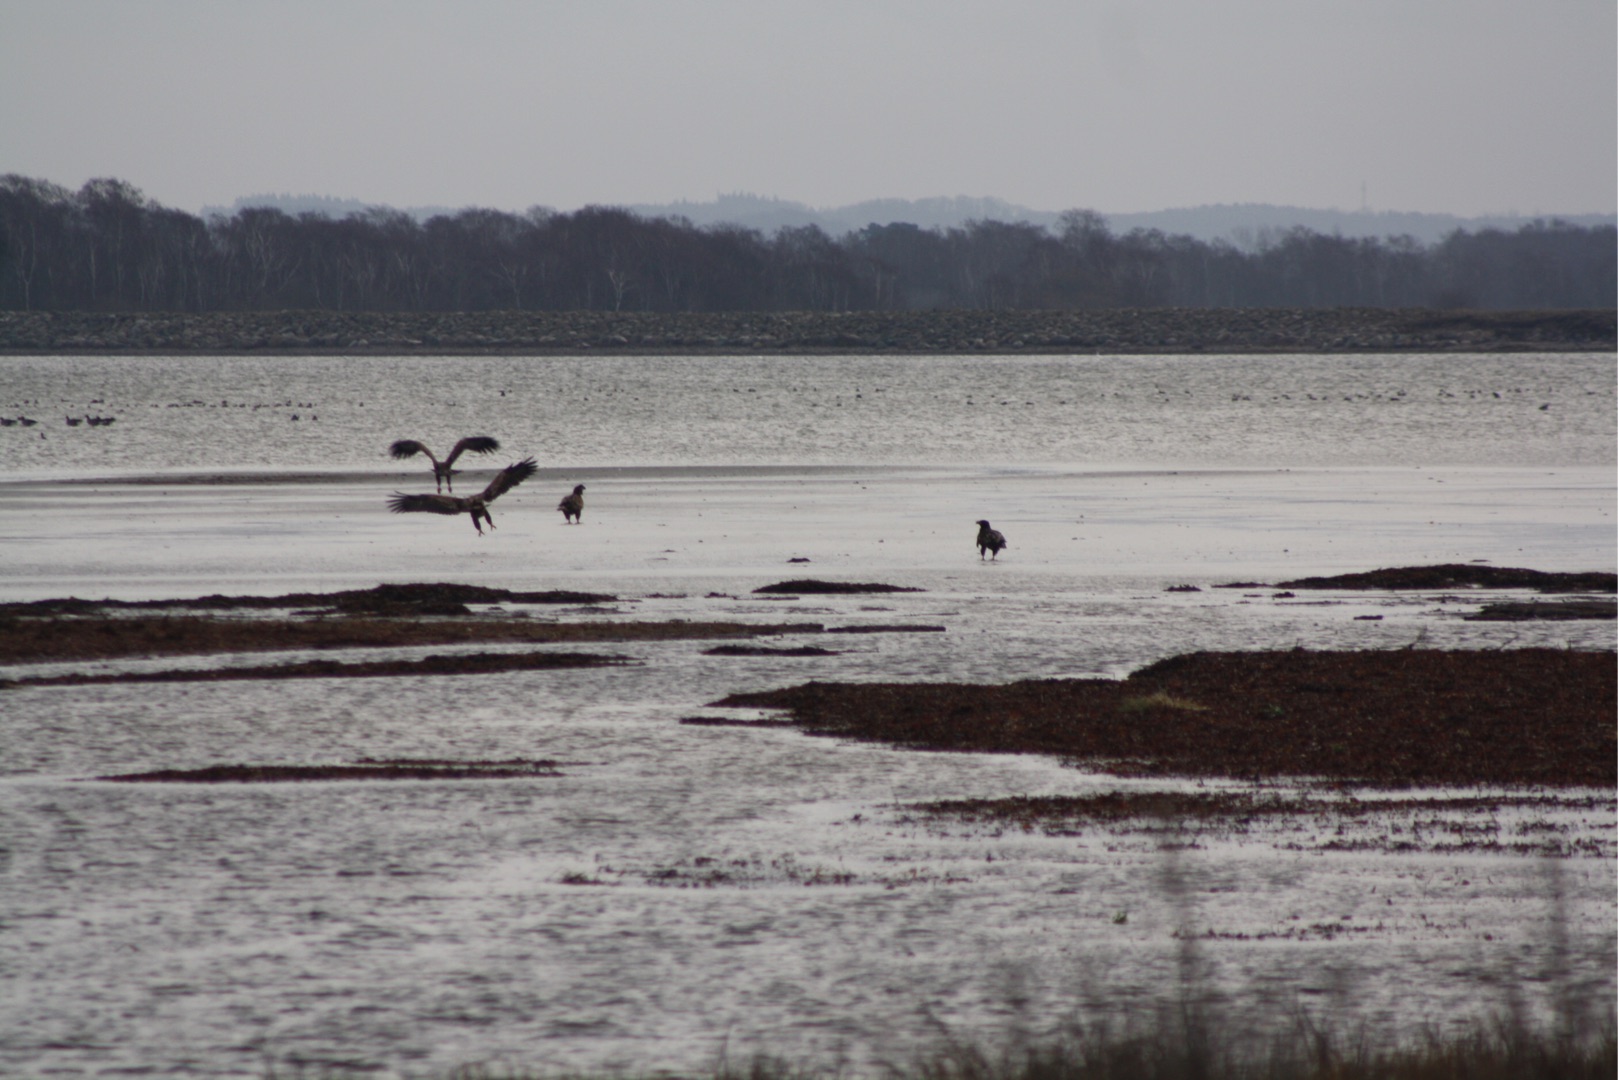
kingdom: Animalia
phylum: Chordata
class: Aves
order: Accipitriformes
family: Accipitridae
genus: Haliaeetus
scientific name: Haliaeetus albicilla
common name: Havørn
